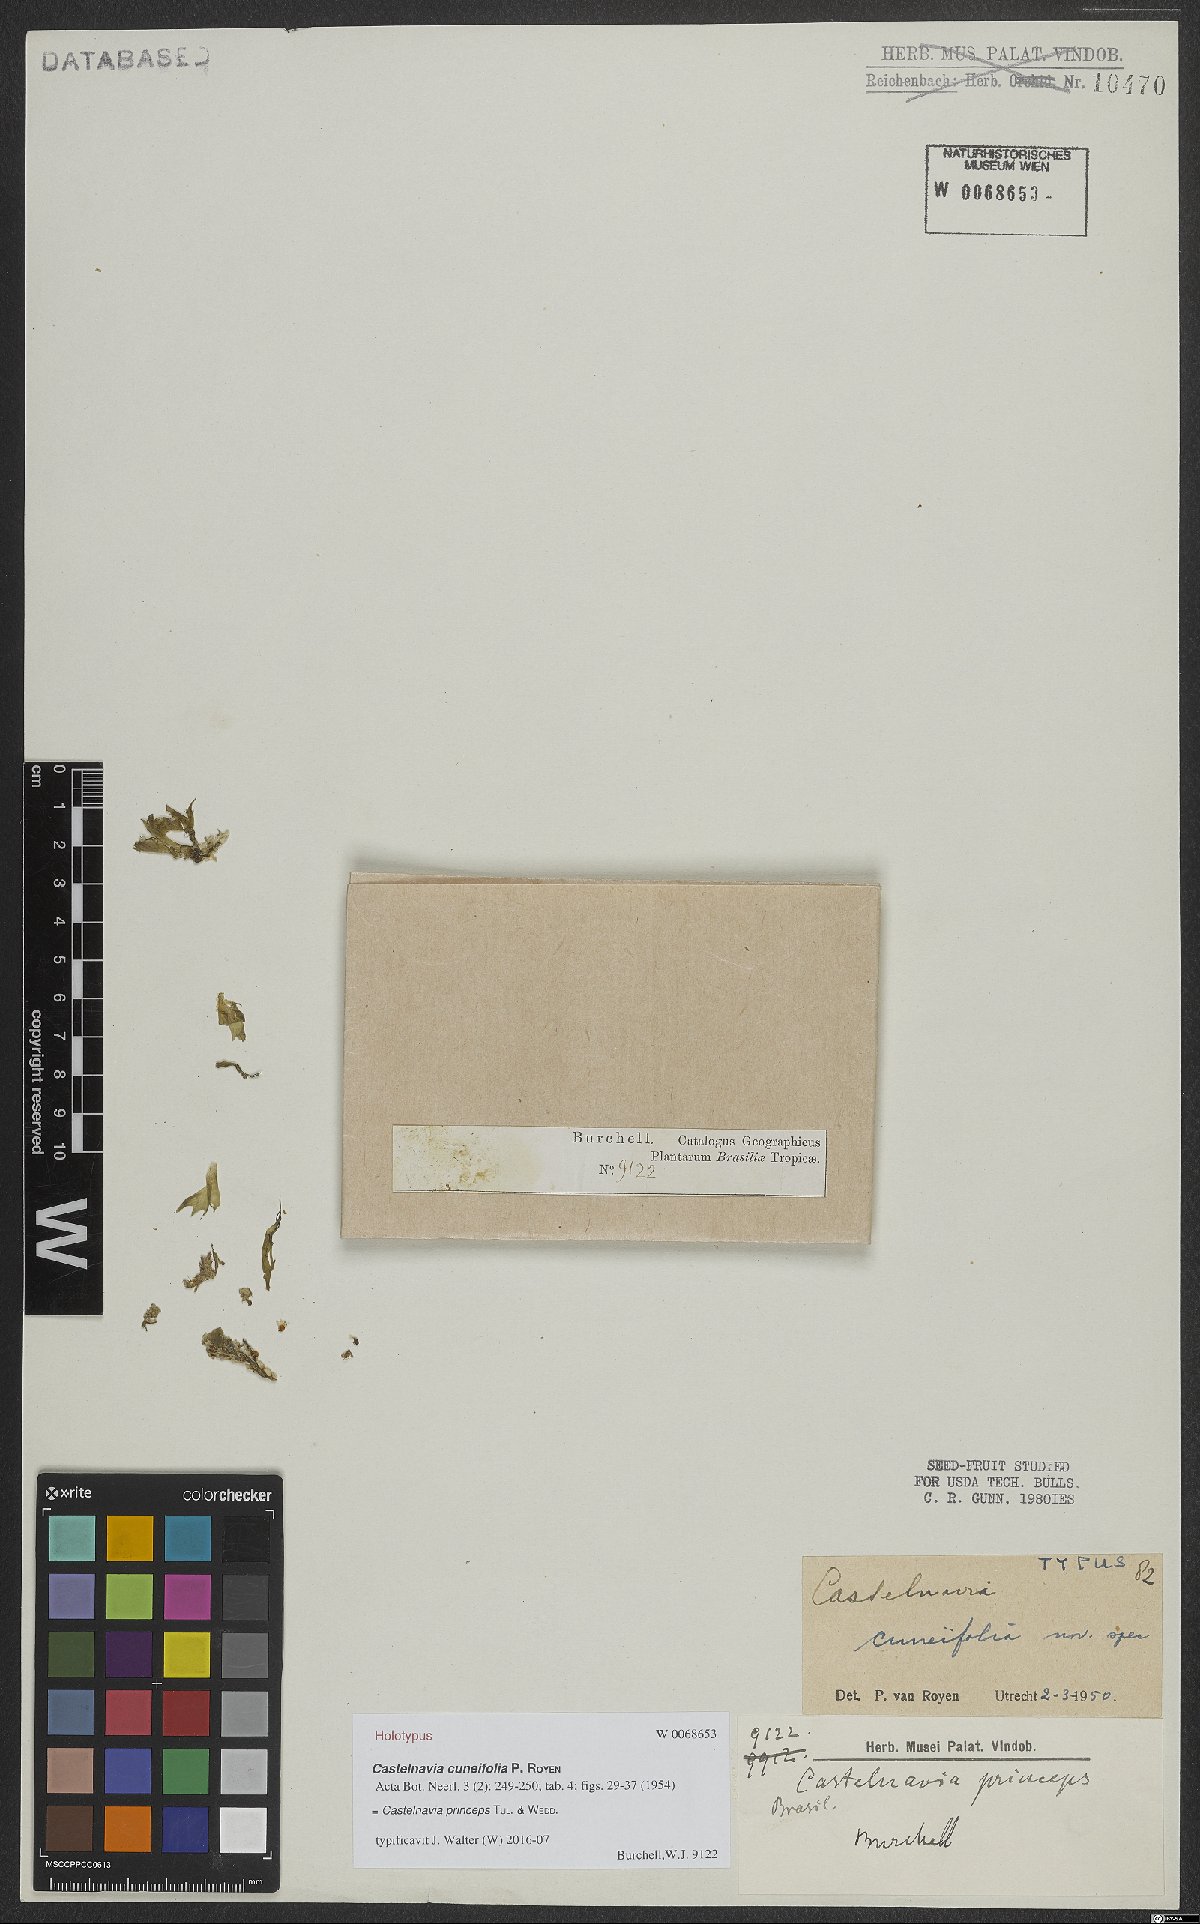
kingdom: Plantae
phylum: Tracheophyta
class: Magnoliopsida
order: Malpighiales
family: Podostemaceae
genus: Castelnavia
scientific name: Castelnavia princeps
